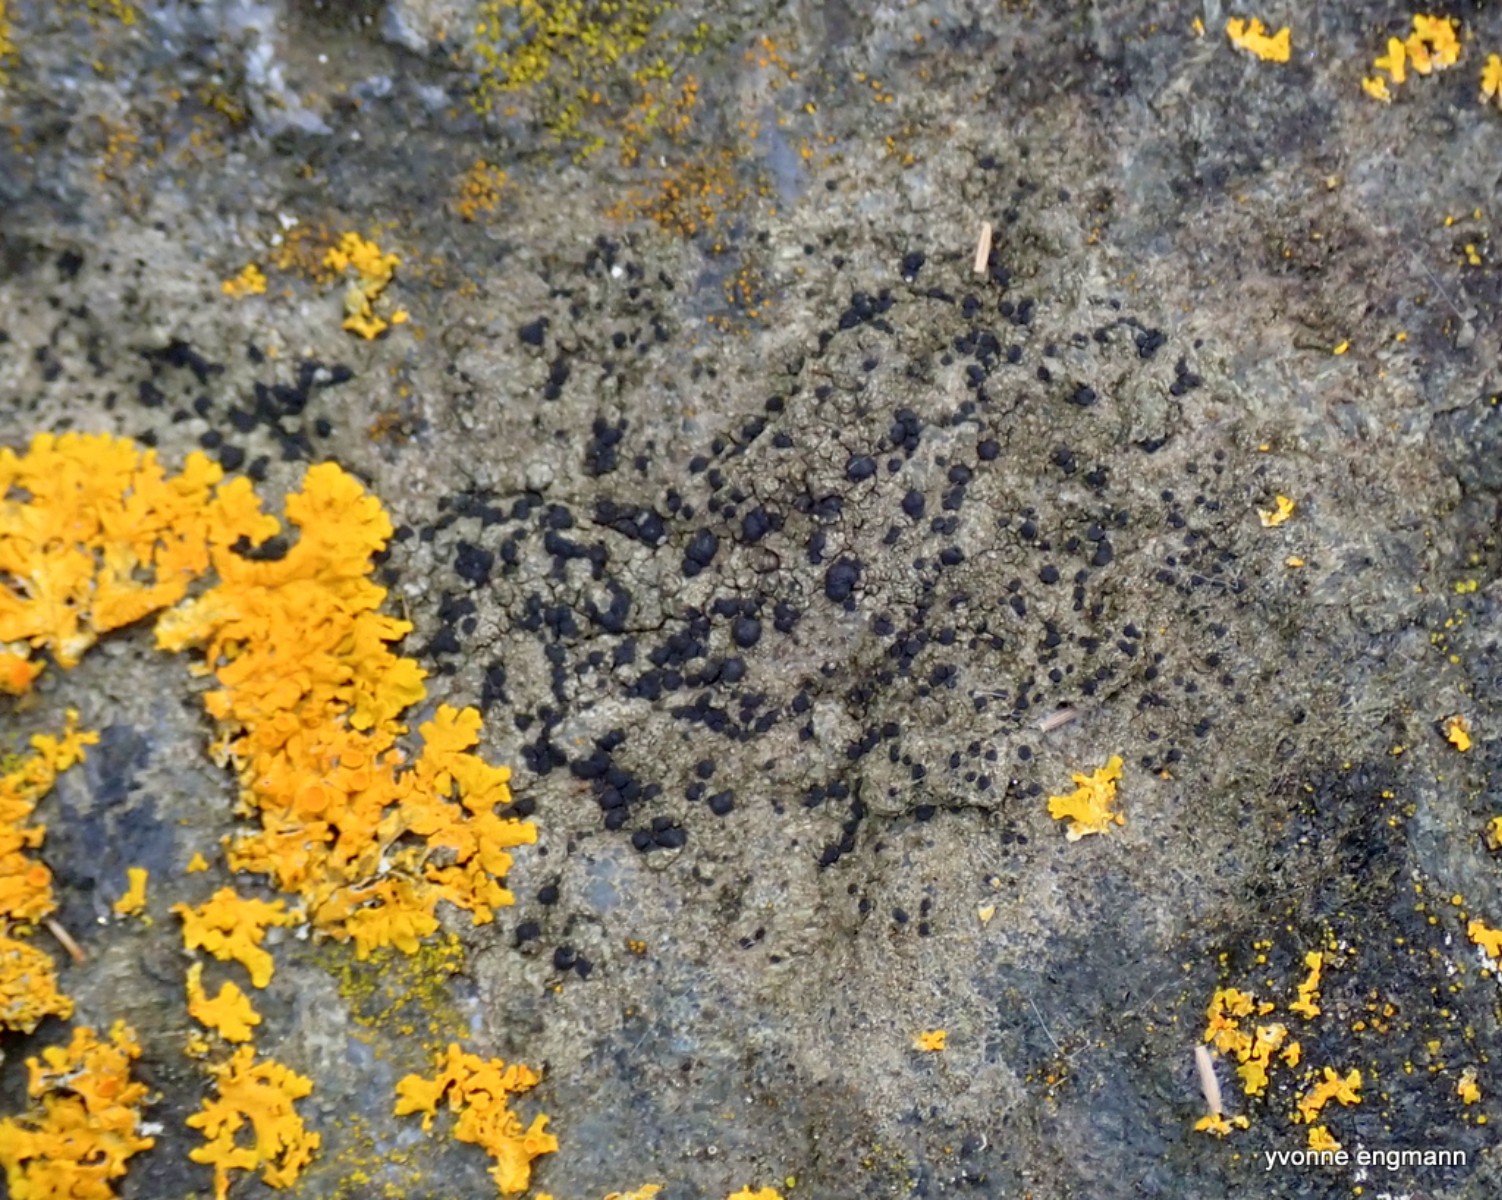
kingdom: Fungi
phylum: Ascomycota
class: Lecanoromycetes
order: Lecanorales
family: Lecanoraceae
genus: Lecidella
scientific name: Lecidella scabra
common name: skurvet skivelav
